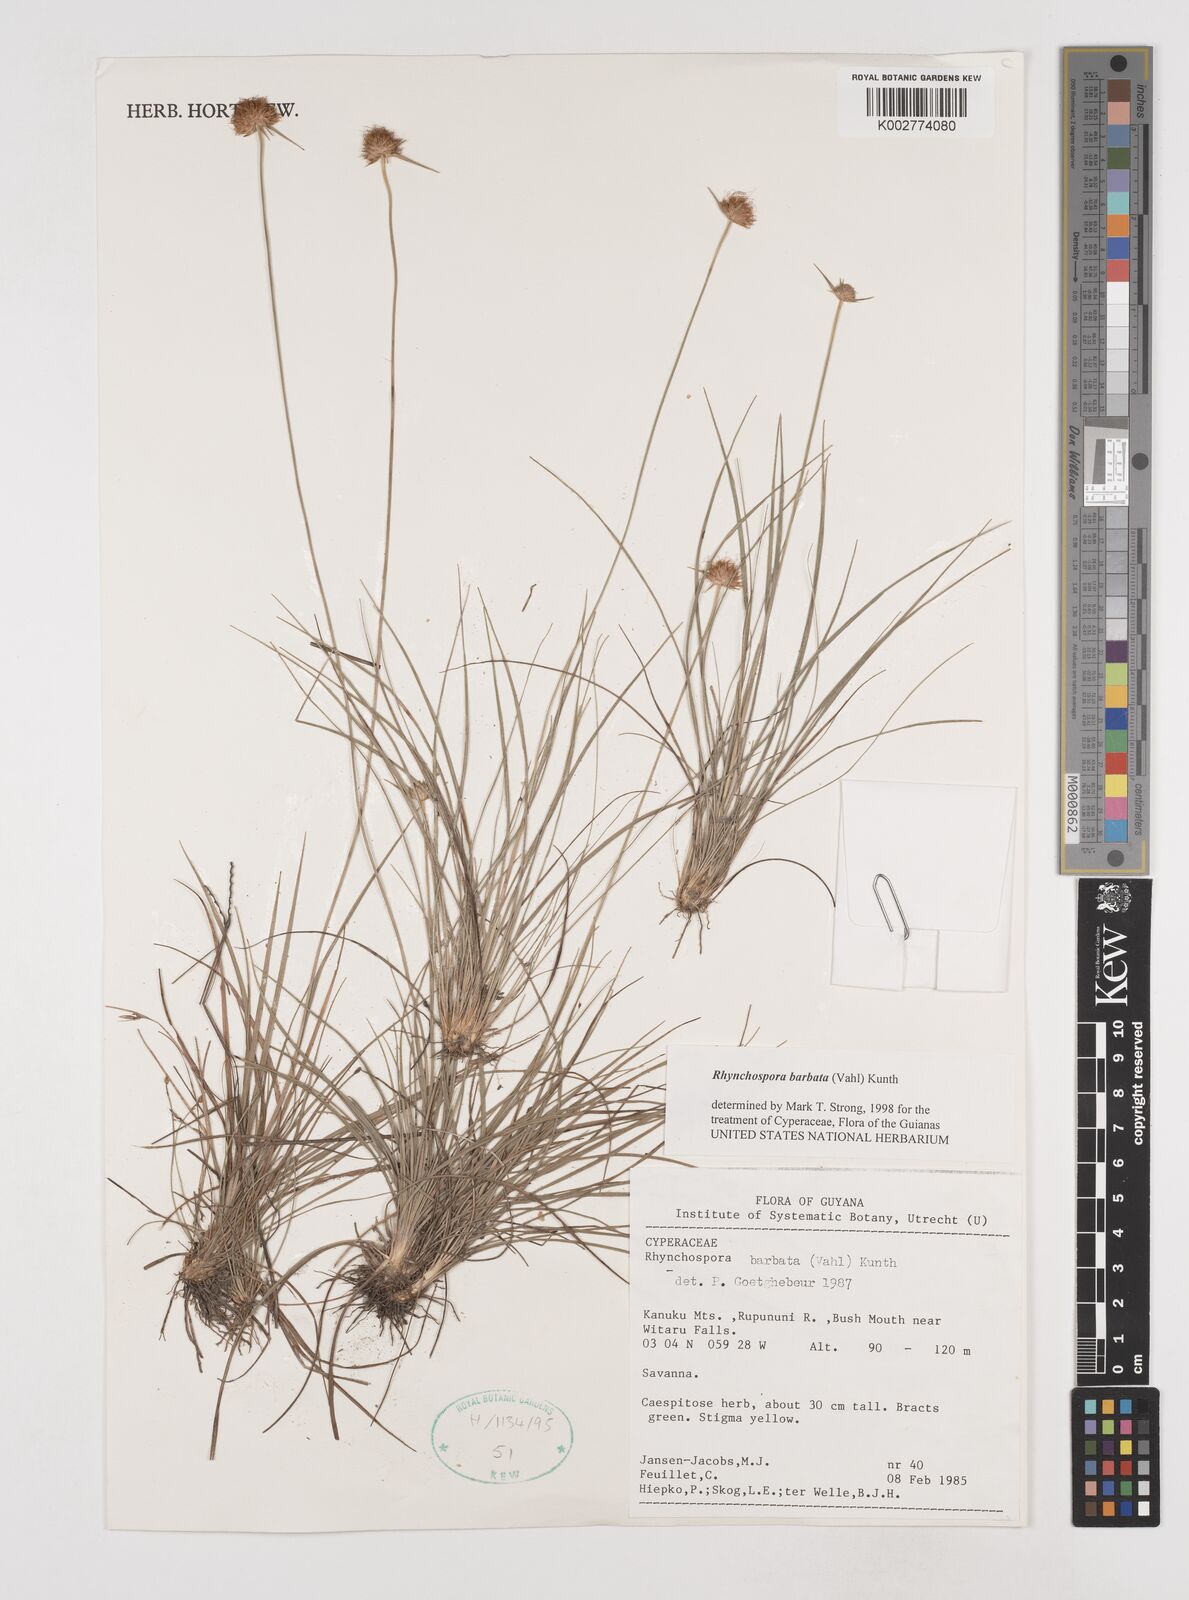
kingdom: Plantae
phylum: Tracheophyta
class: Liliopsida
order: Poales
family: Cyperaceae
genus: Rhynchospora
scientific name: Rhynchospora barbata
